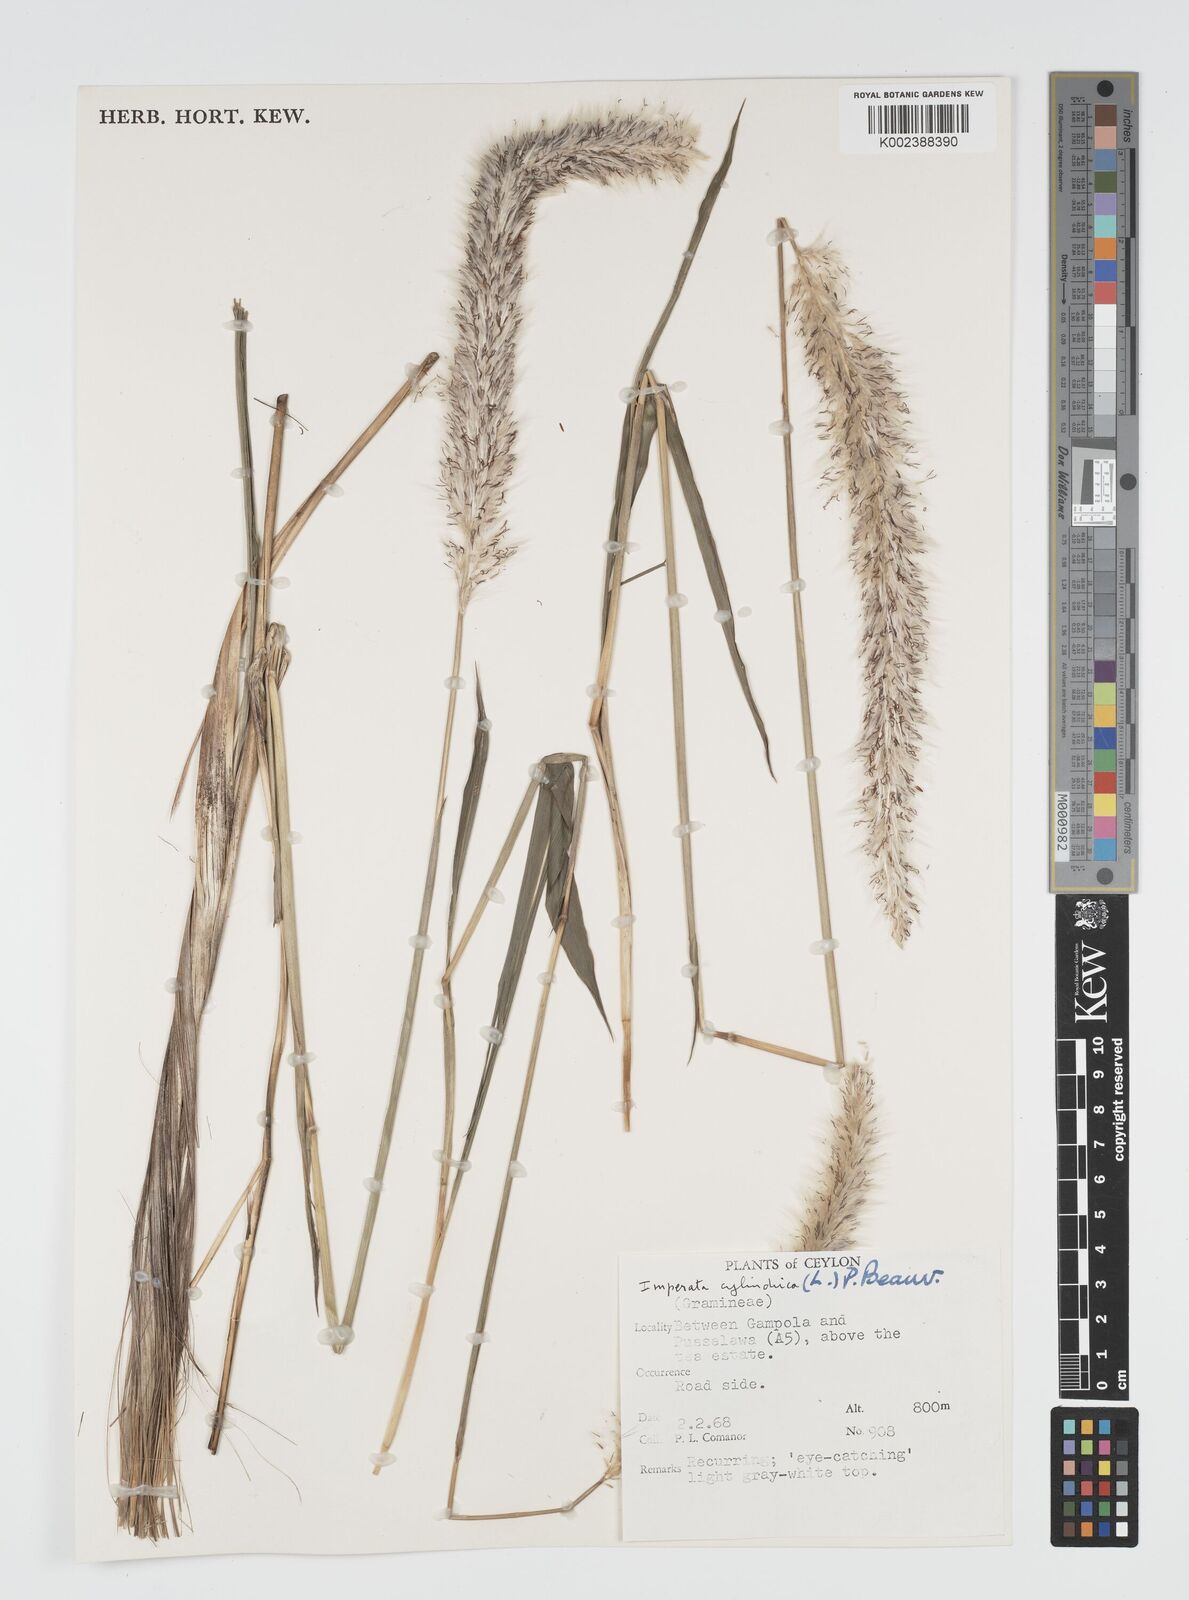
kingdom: Plantae
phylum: Tracheophyta
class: Liliopsida
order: Poales
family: Poaceae
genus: Imperata
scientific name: Imperata cylindrica
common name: Cogongrass
